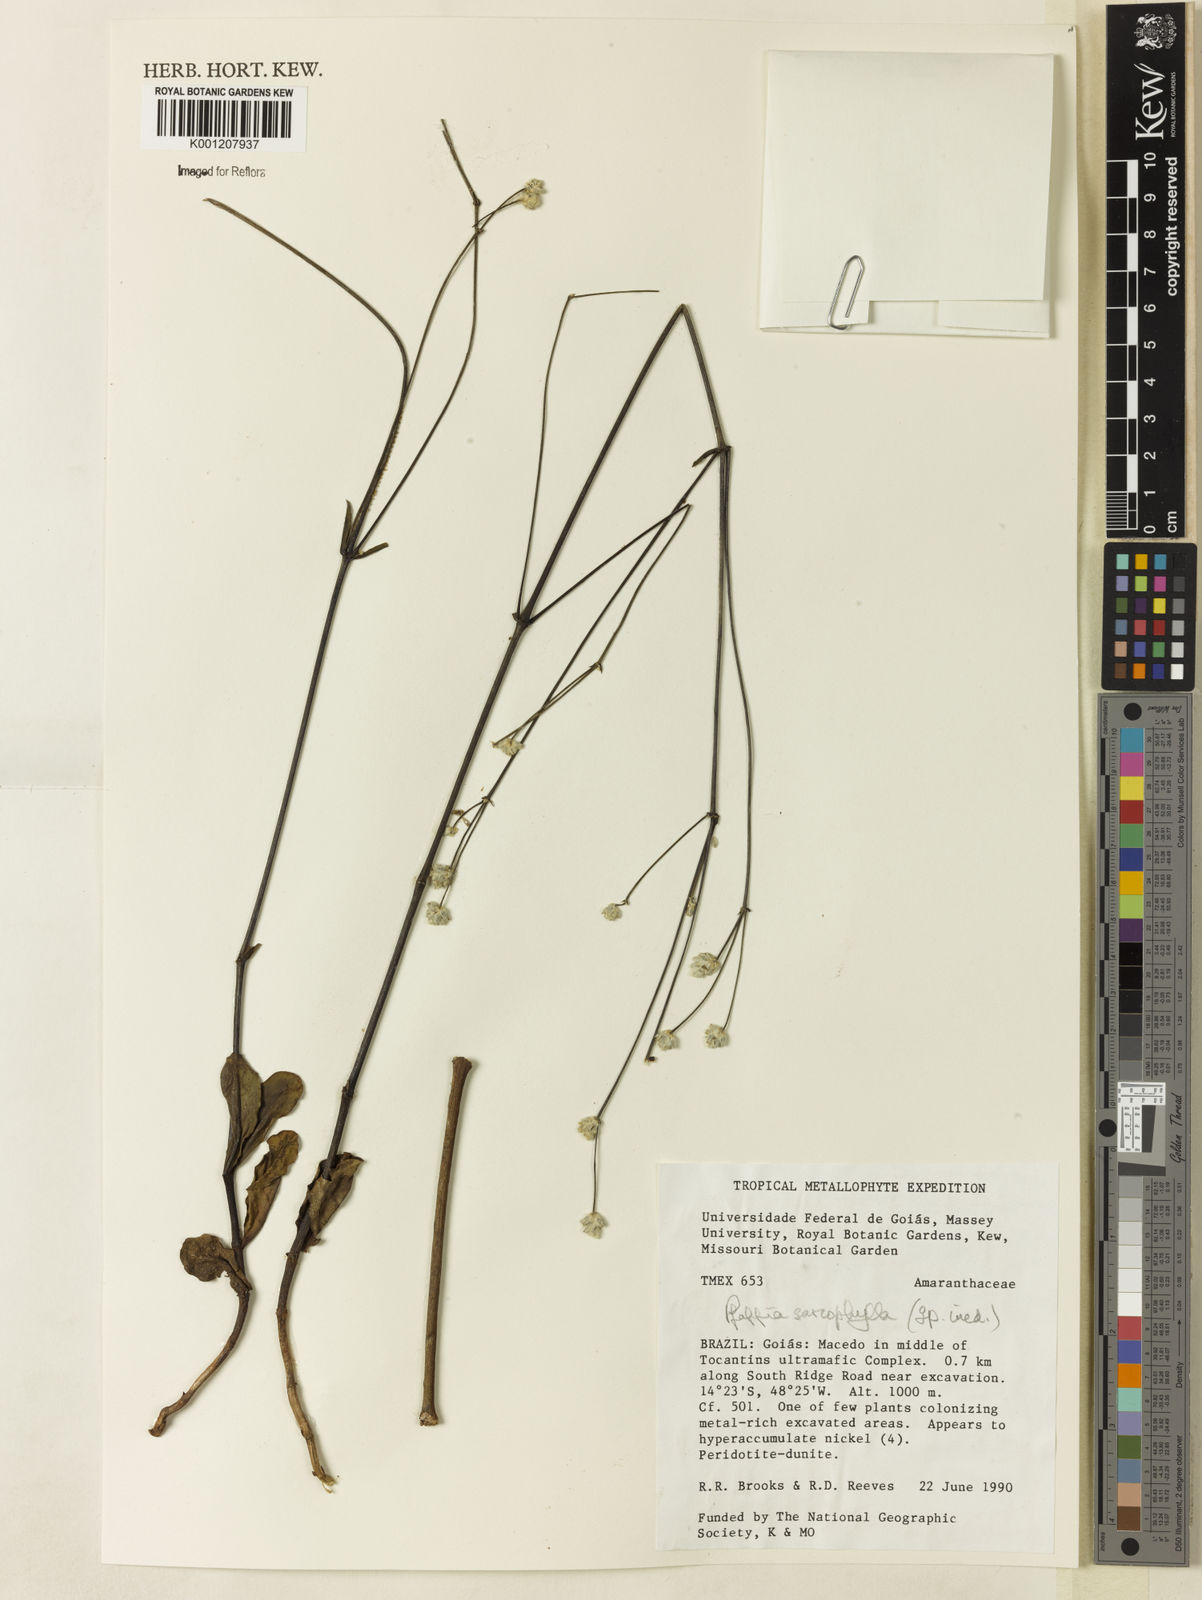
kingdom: Plantae
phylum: Tracheophyta
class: Magnoliopsida
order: Caryophyllales
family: Amaranthaceae
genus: Pfaffia
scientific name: Pfaffia sarcophylla
